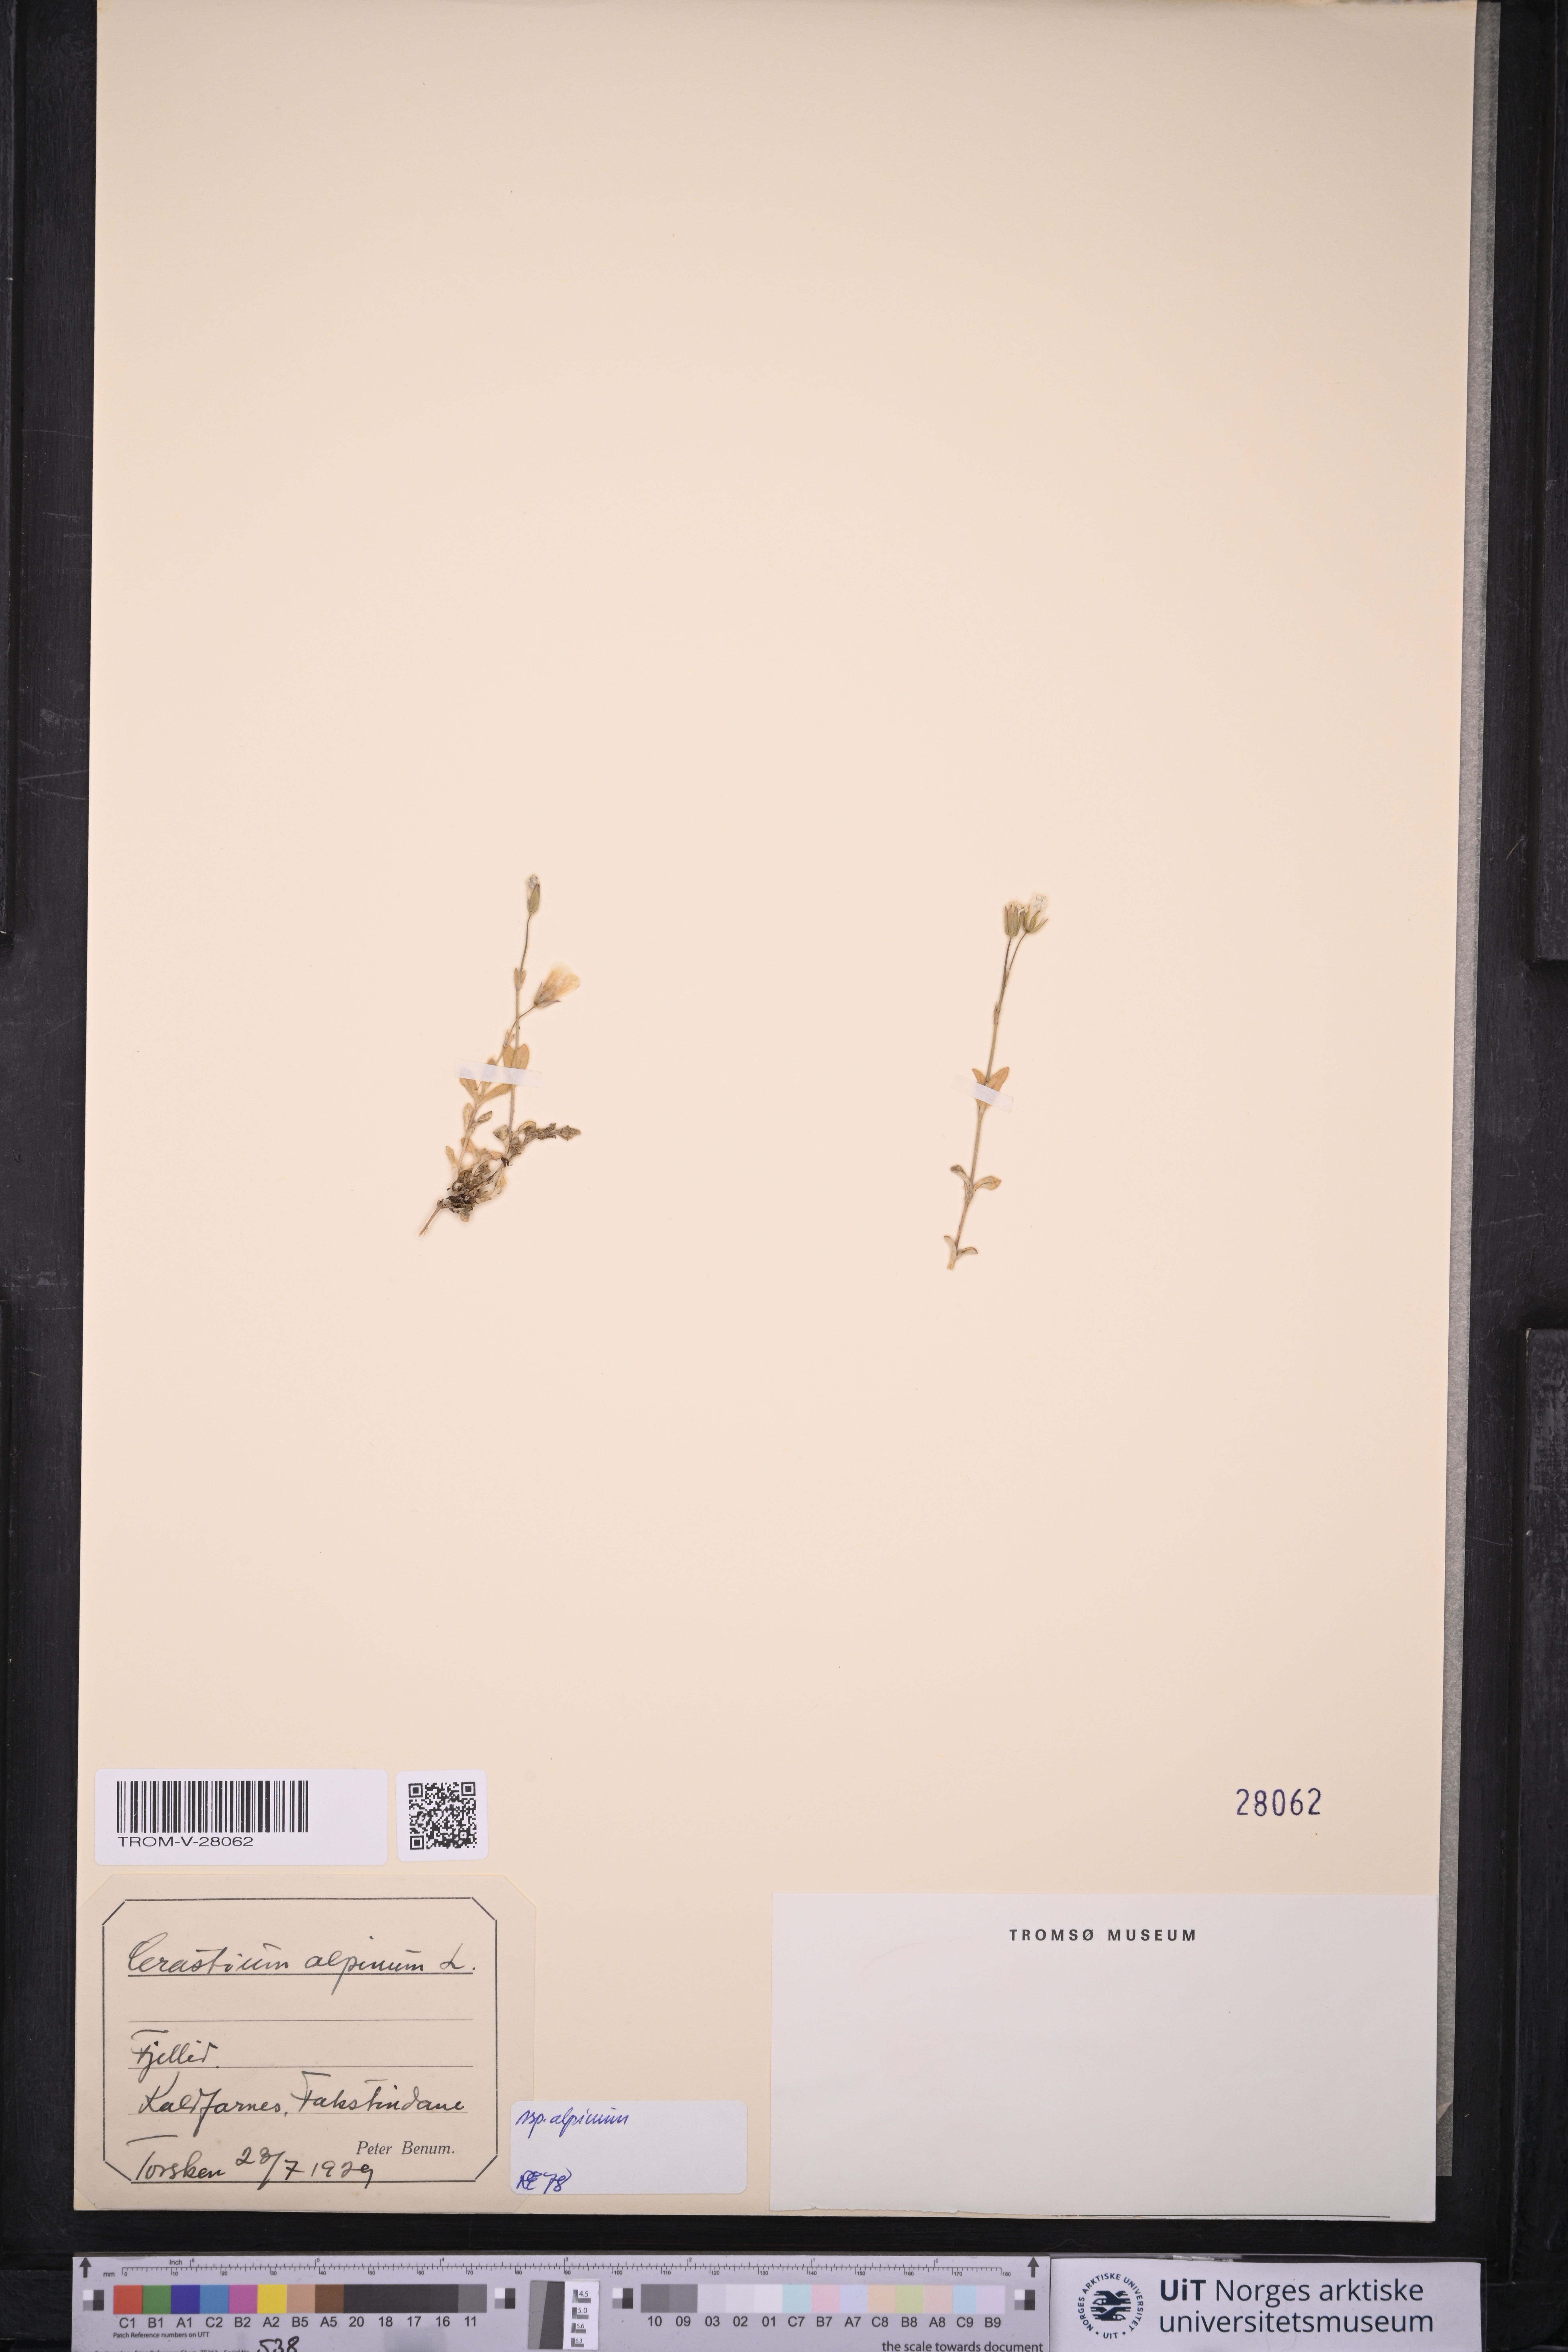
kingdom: Plantae
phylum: Tracheophyta
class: Magnoliopsida
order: Caryophyllales
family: Caryophyllaceae
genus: Cerastium
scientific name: Cerastium alpinum
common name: Alpine mouse-ear
